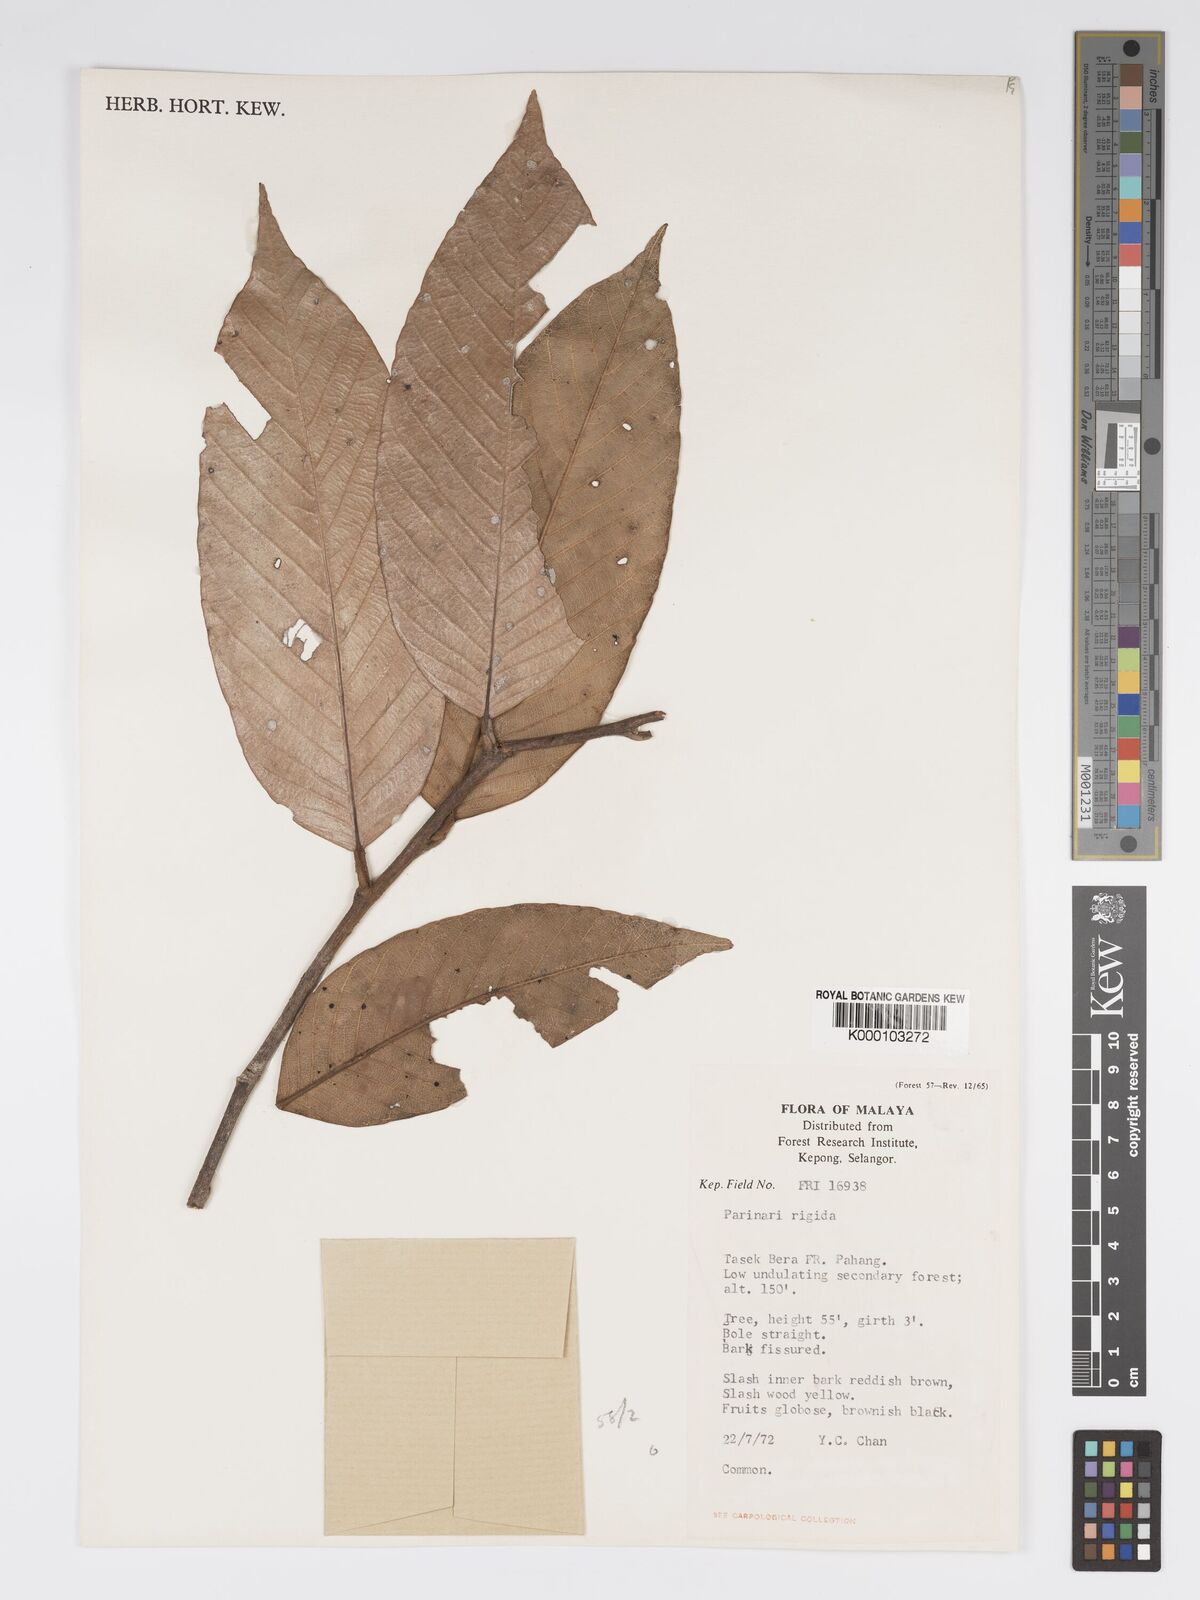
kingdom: Plantae
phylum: Tracheophyta
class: Magnoliopsida
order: Malpighiales
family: Chrysobalanaceae
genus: Parinari
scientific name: Parinari rigida
